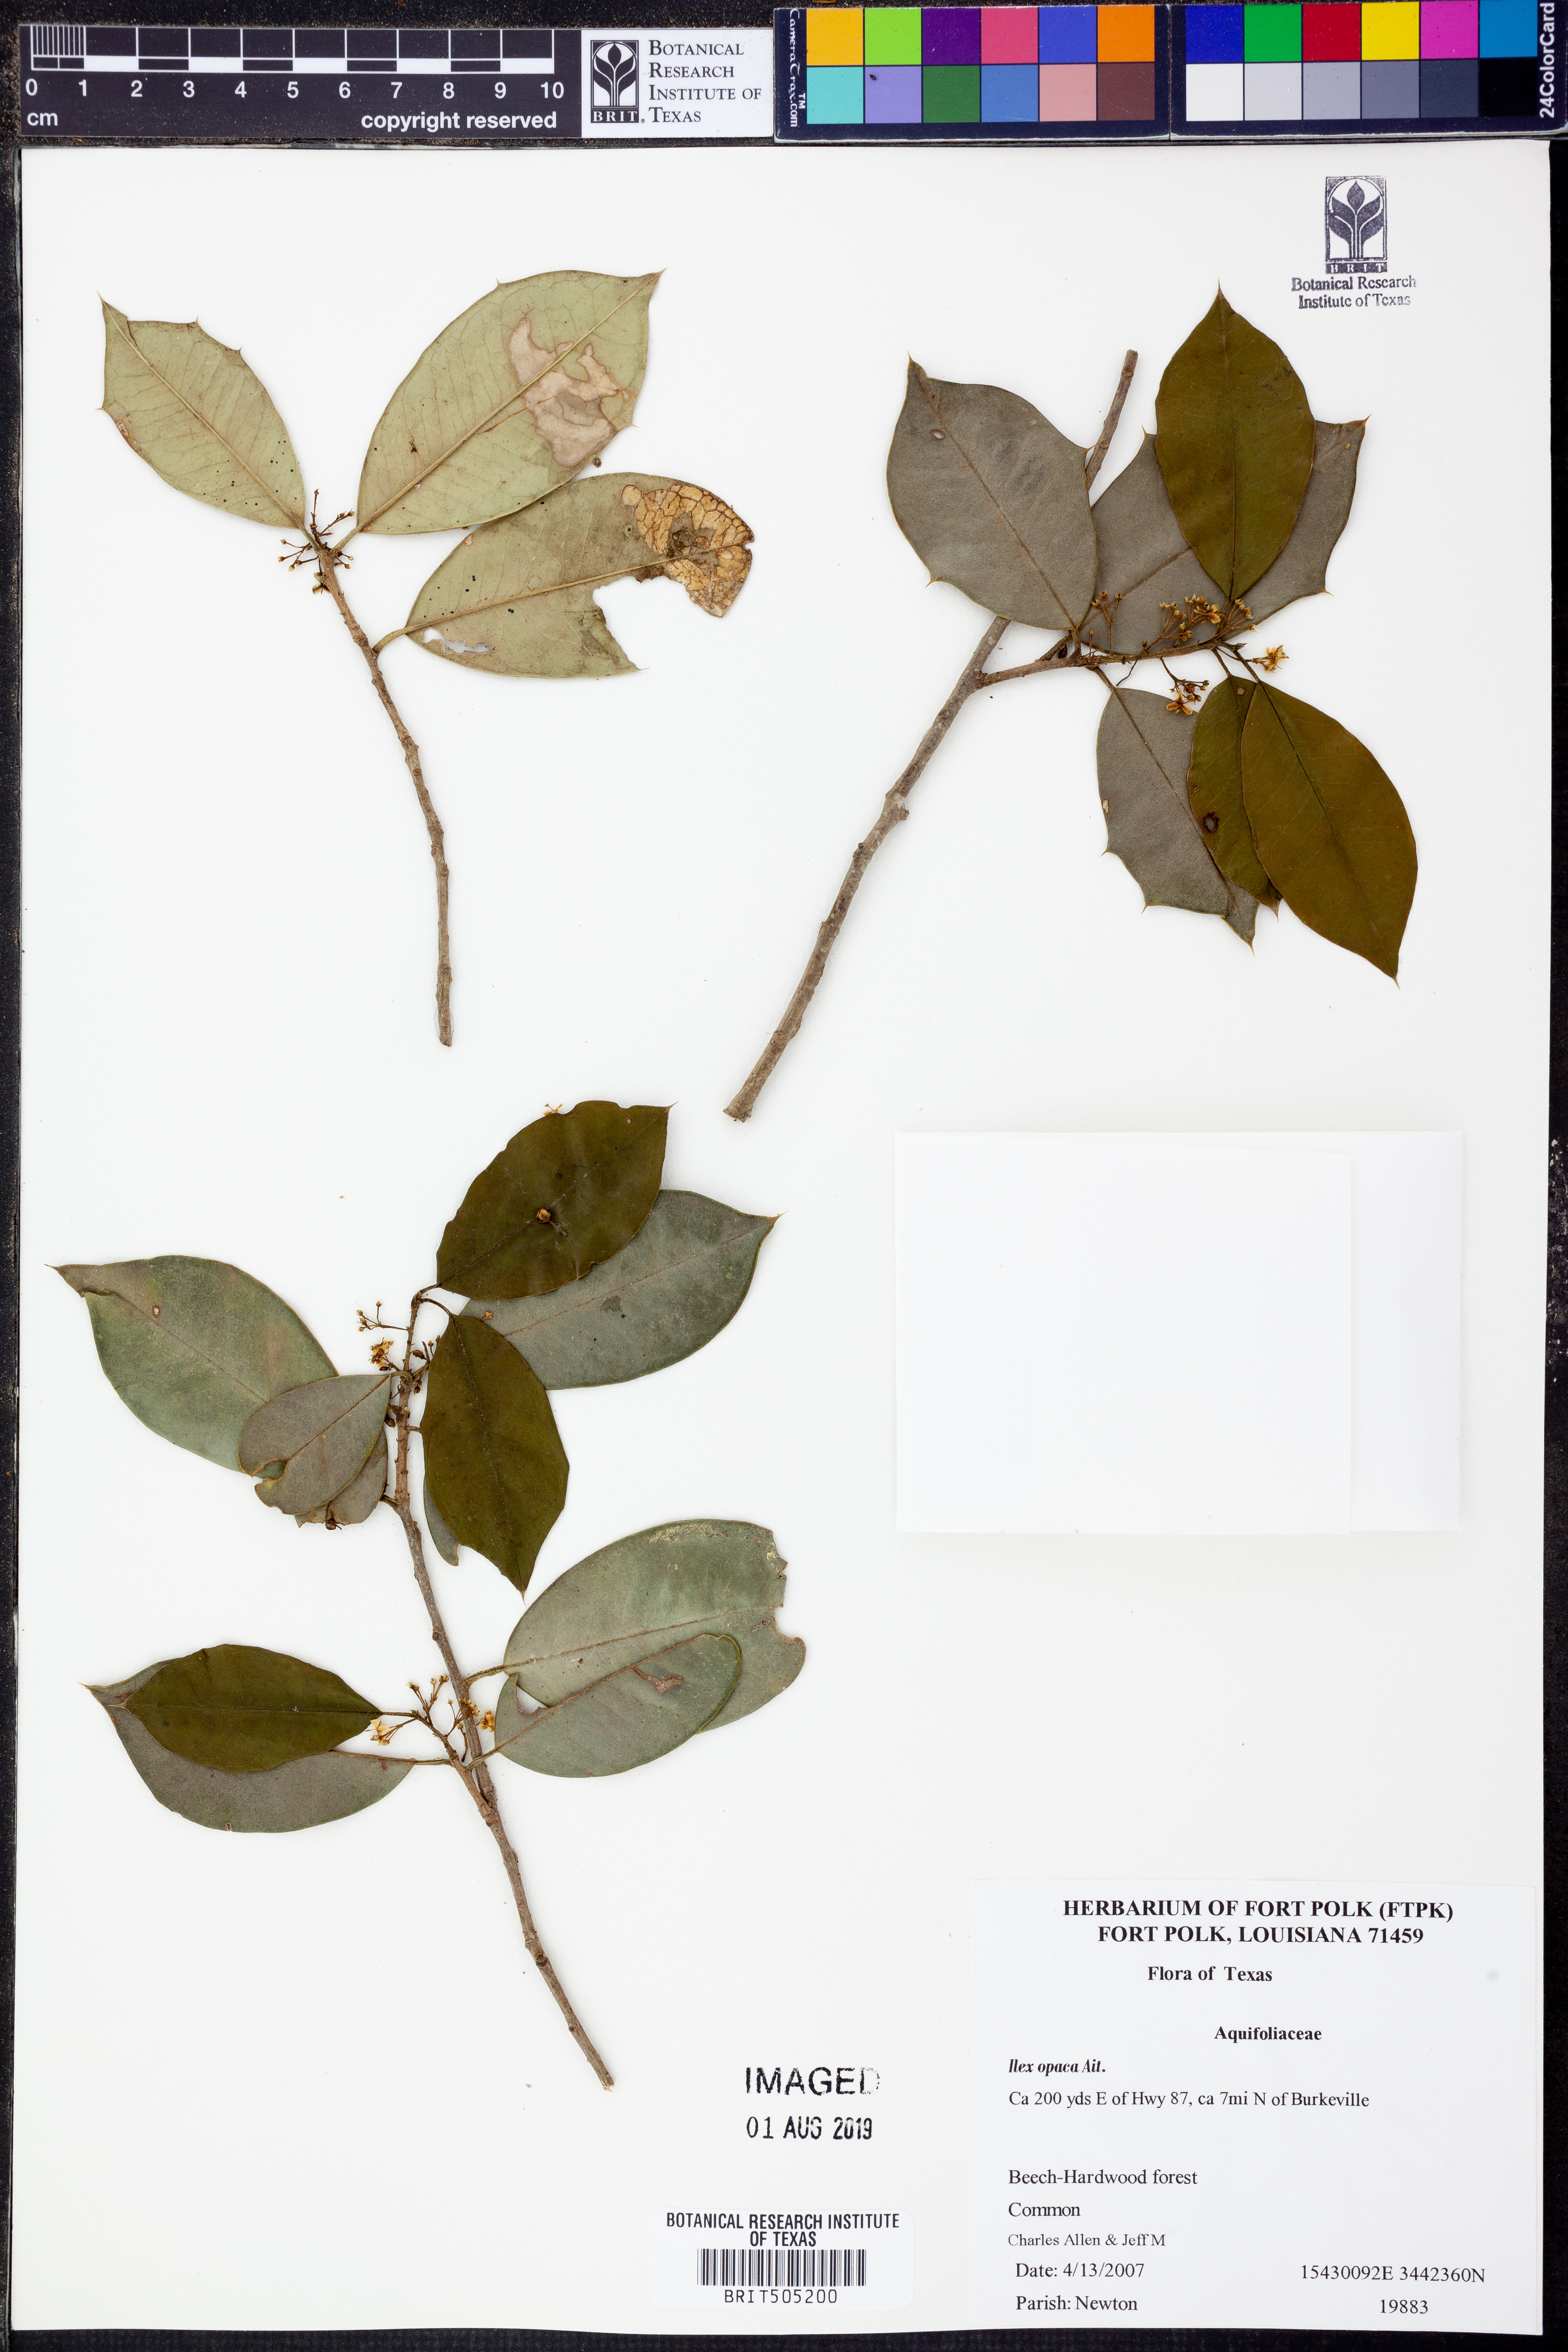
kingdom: Plantae
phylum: Tracheophyta
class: Magnoliopsida
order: Aquifoliales
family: Aquifoliaceae
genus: Ilex
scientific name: Ilex opaca
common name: American holly
